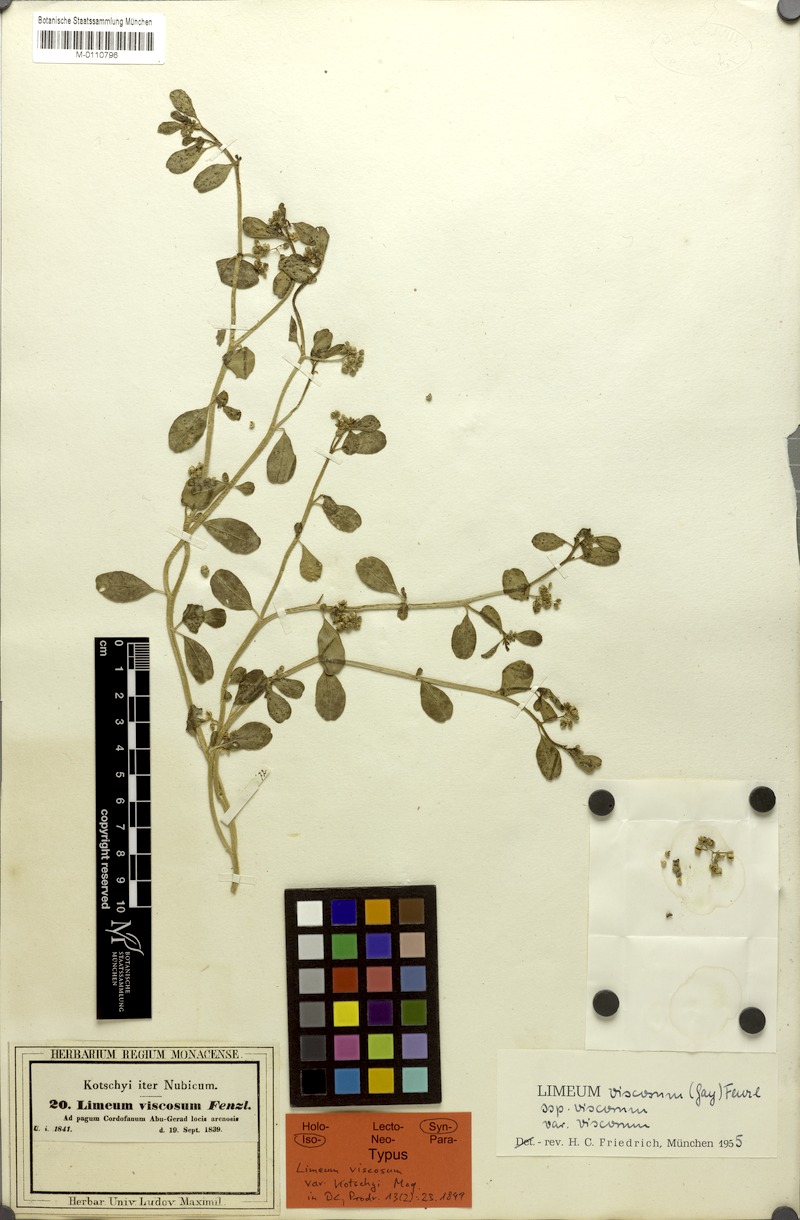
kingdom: Plantae
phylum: Tracheophyta
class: Magnoliopsida
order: Caryophyllales
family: Limeaceae
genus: Limeum
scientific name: Limeum viscosum
